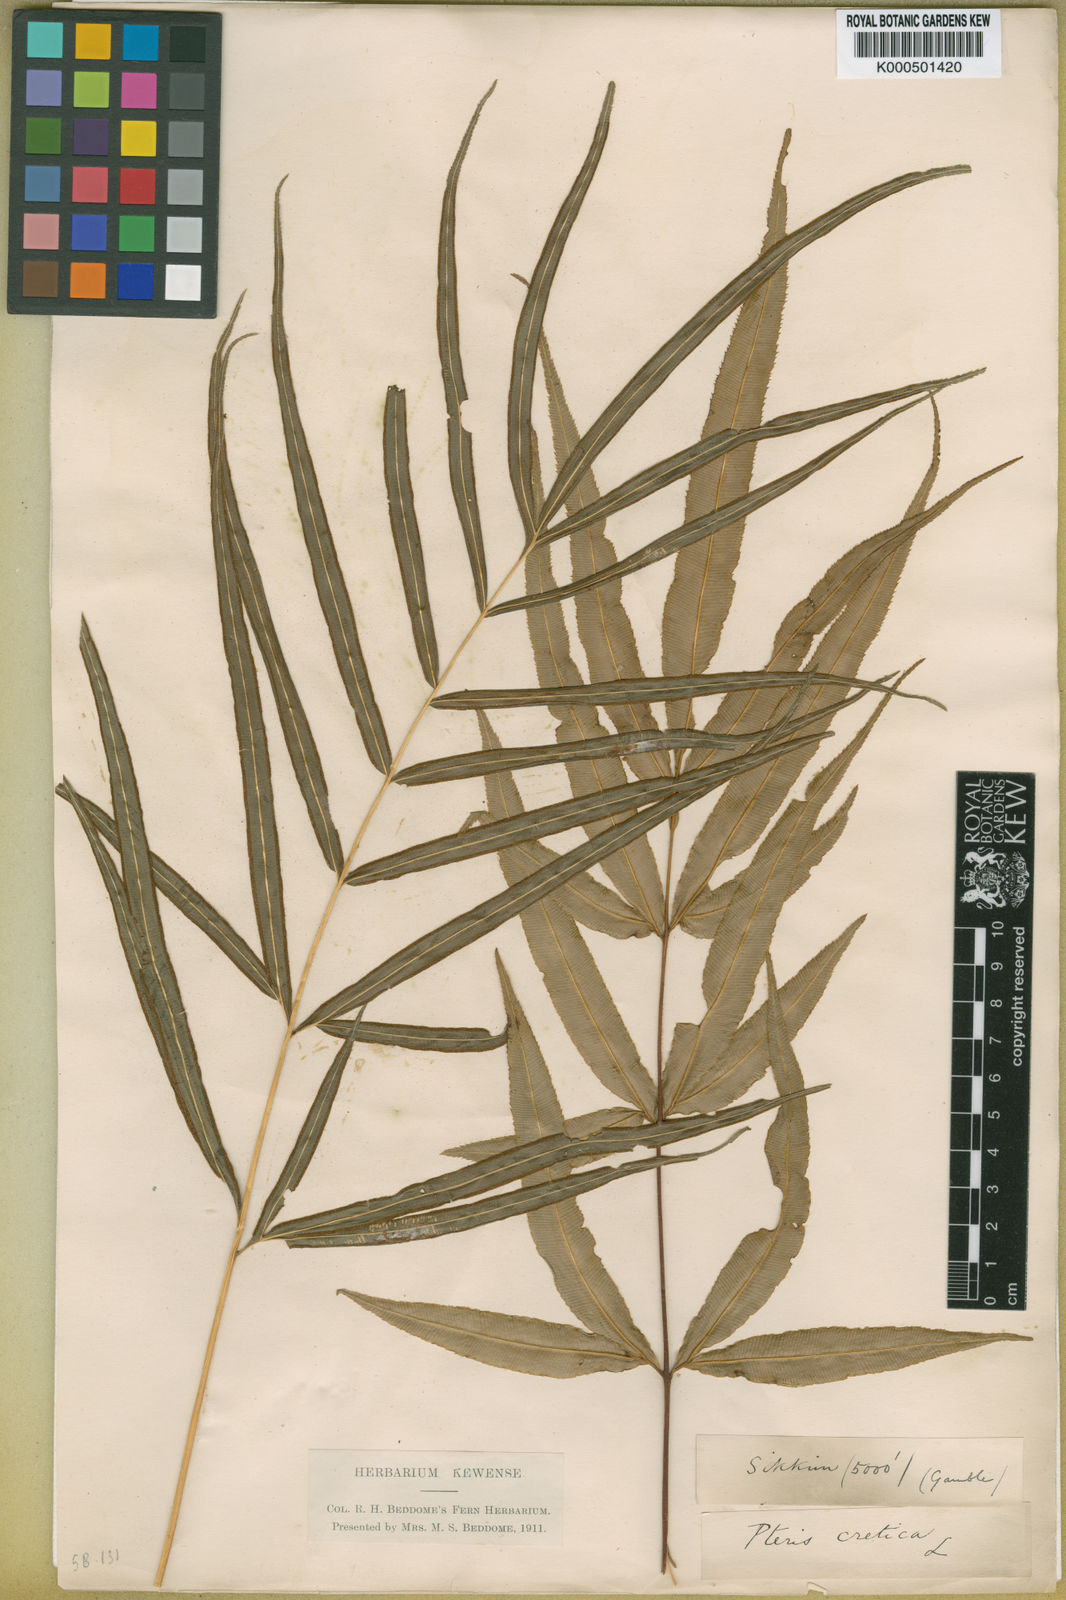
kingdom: Plantae
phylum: Tracheophyta
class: Polypodiopsida
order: Polypodiales
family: Pteridaceae
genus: Pteris
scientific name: Pteris cretica
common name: Ribbon fern
